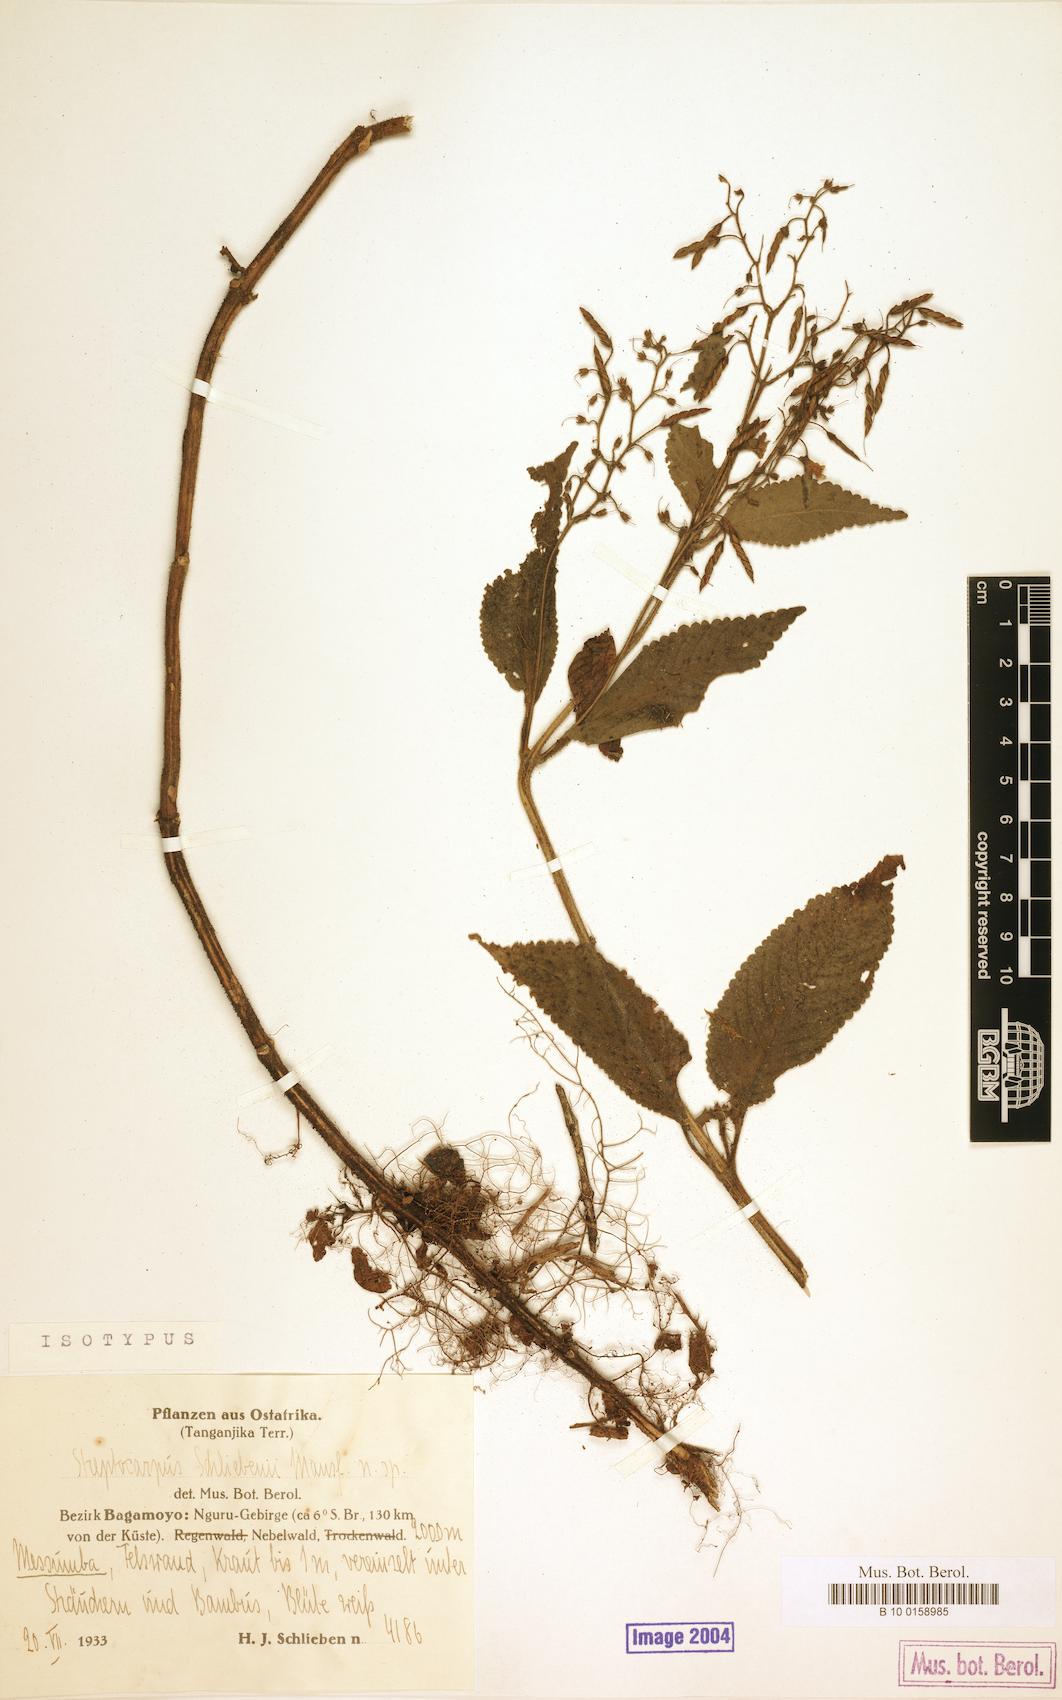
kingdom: Plantae
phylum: Tracheophyta
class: Magnoliopsida
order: Lamiales
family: Gesneriaceae
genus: Streptocarpus
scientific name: Streptocarpus schliebenii
